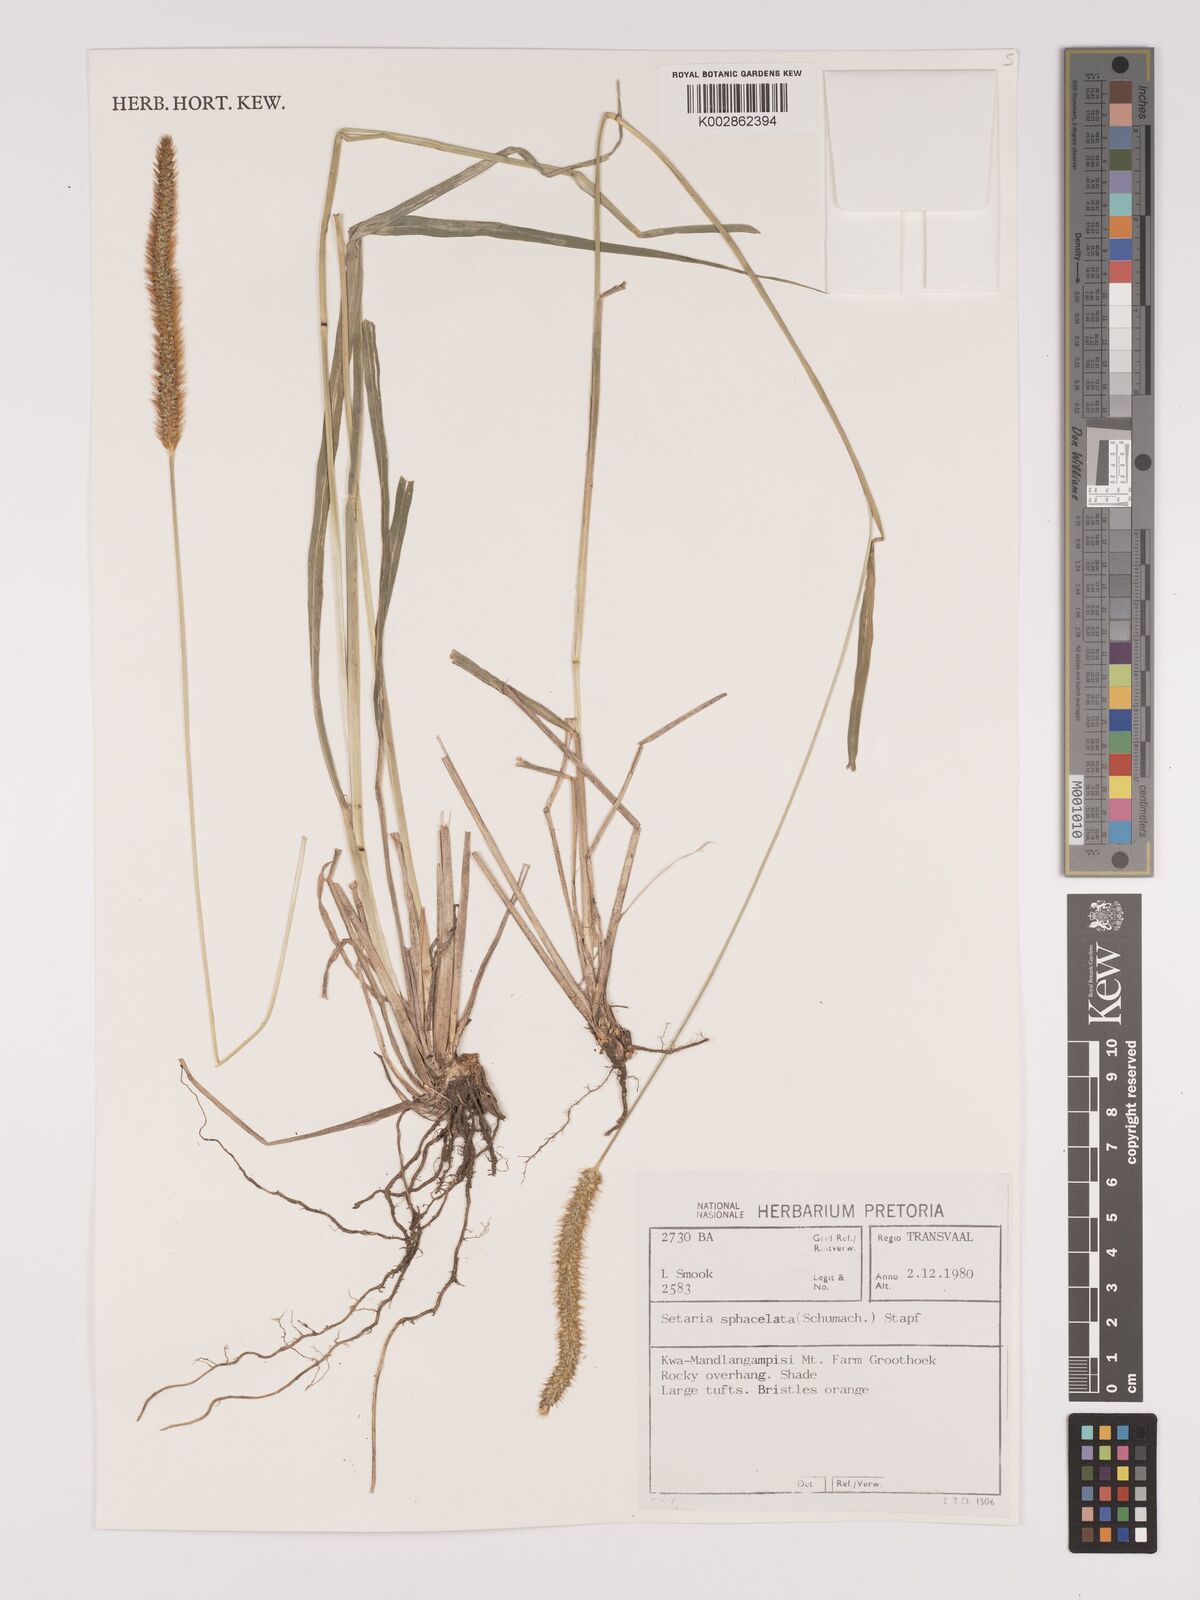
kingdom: Plantae
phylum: Tracheophyta
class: Liliopsida
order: Poales
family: Poaceae
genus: Setaria
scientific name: Setaria sphacelata
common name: African bristlegrass
